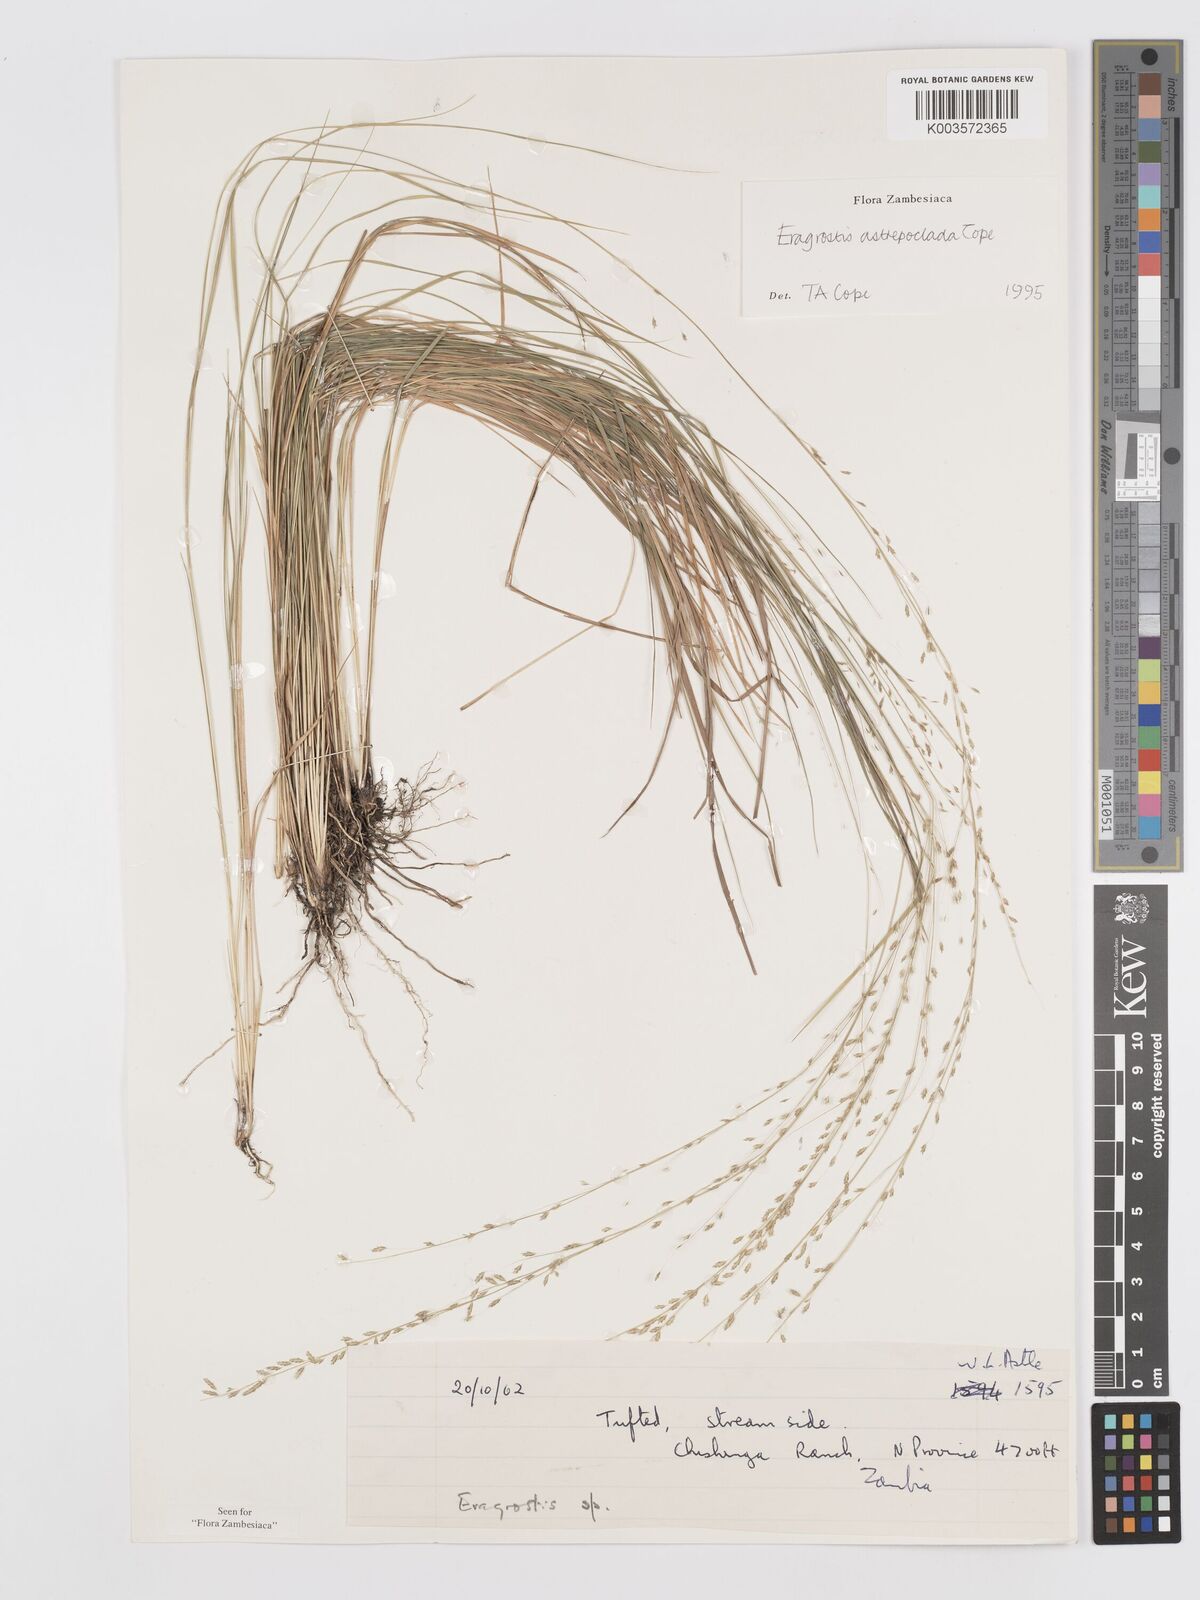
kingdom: Plantae
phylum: Tracheophyta
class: Liliopsida
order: Poales
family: Poaceae
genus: Eragrostis
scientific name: Eragrostis astreptoclada
